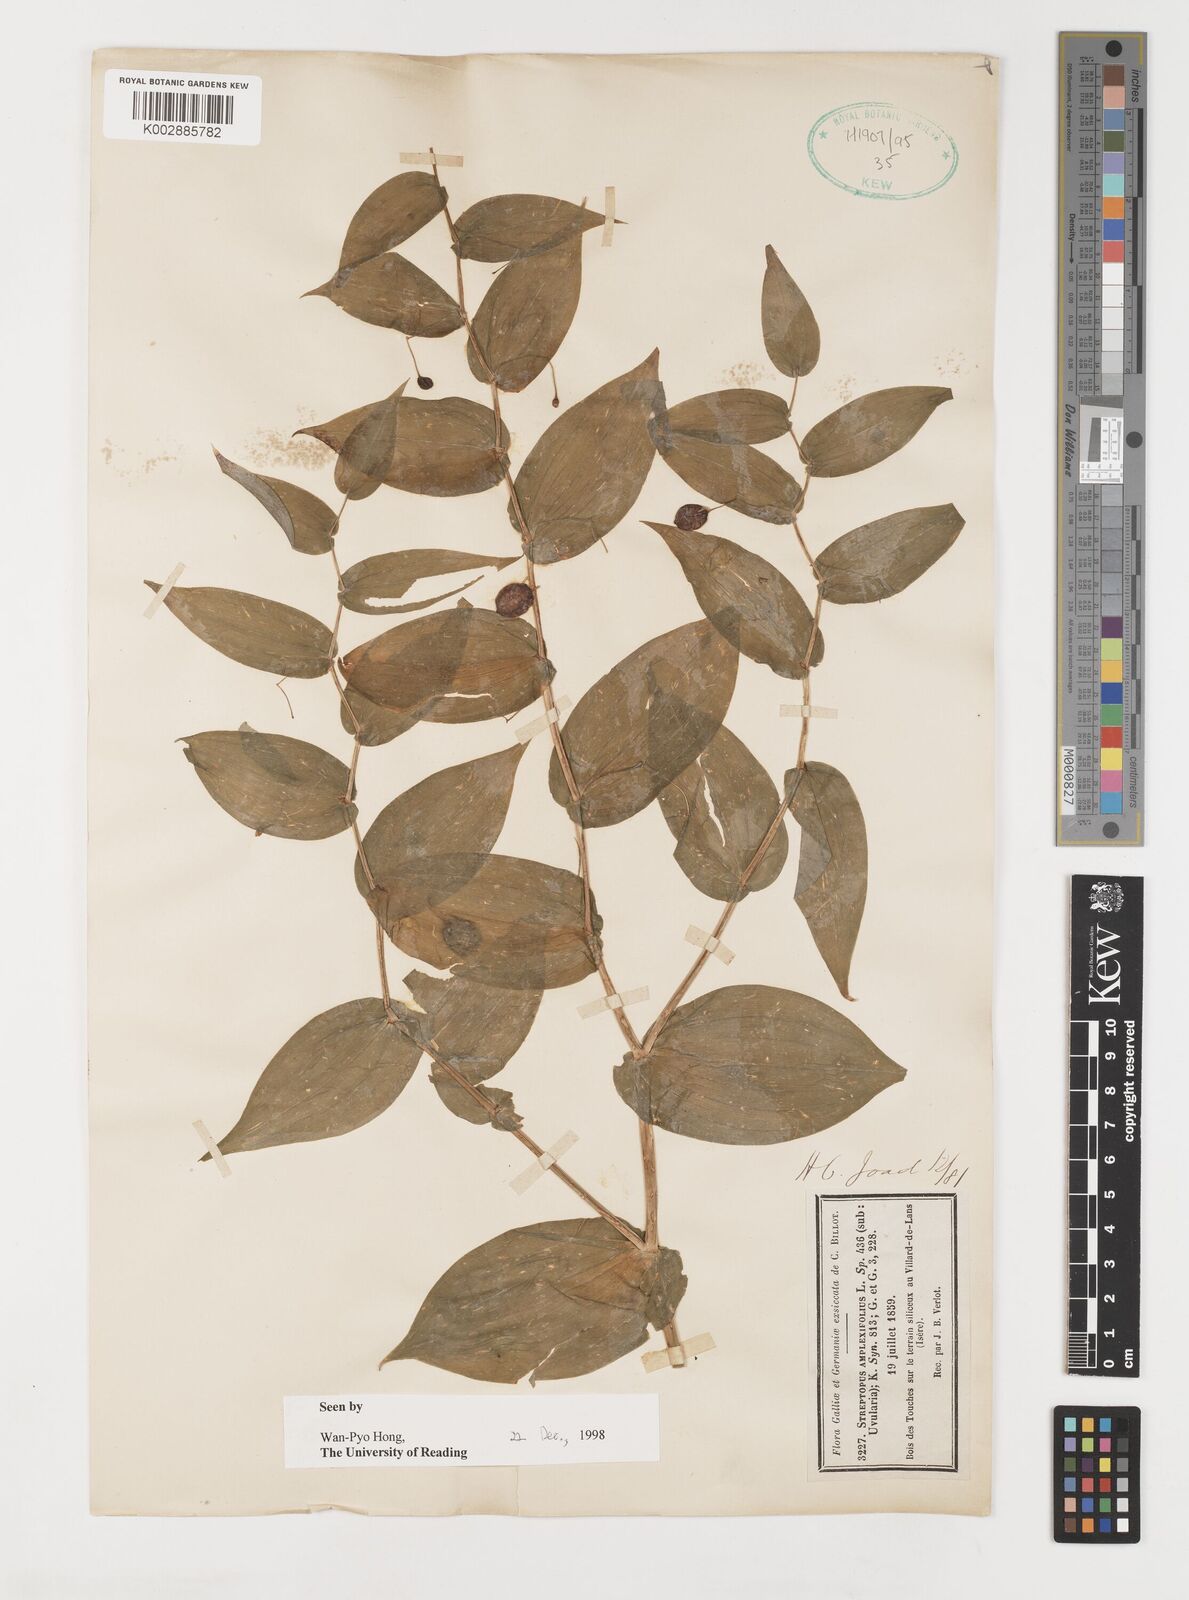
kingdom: Plantae
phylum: Tracheophyta
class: Liliopsida
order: Liliales
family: Liliaceae
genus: Streptopus
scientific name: Streptopus amplexifolius
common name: Clasp twisted stalk
